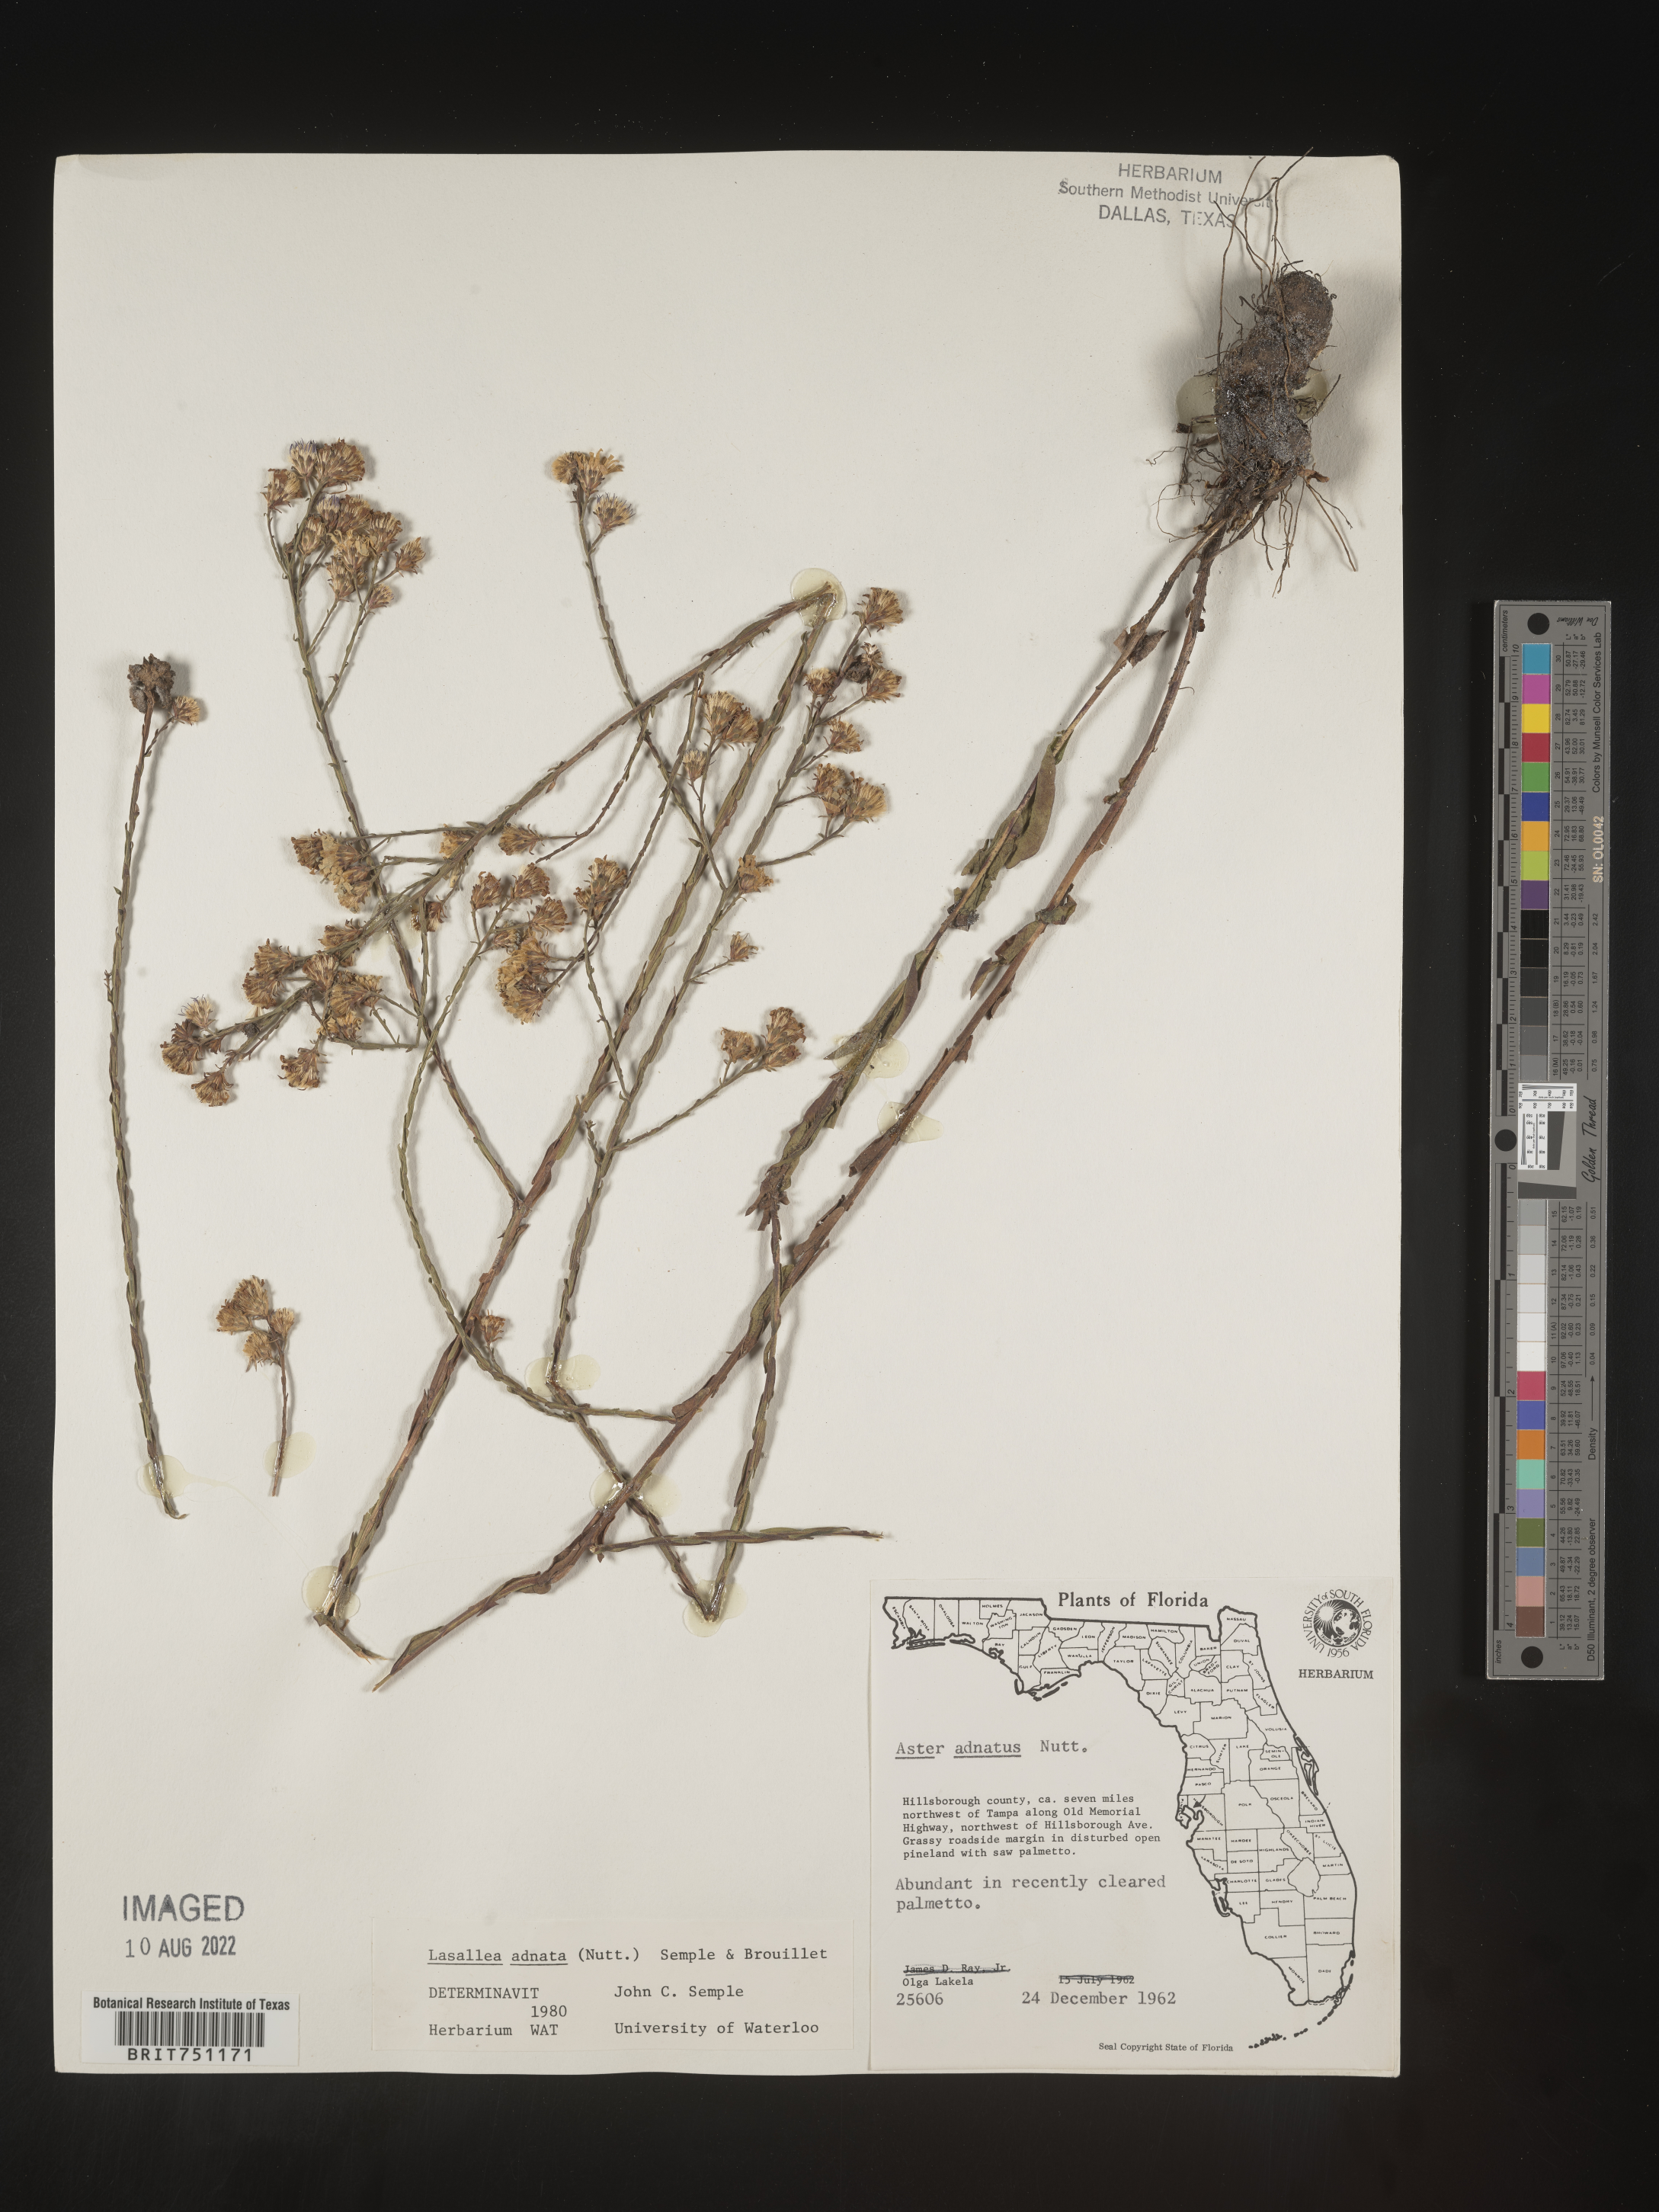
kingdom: Plantae
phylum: Tracheophyta
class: Magnoliopsida
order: Asterales
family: Asteraceae
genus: Symphyotrichum
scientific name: Symphyotrichum adnatum
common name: Scale-leaf aster
